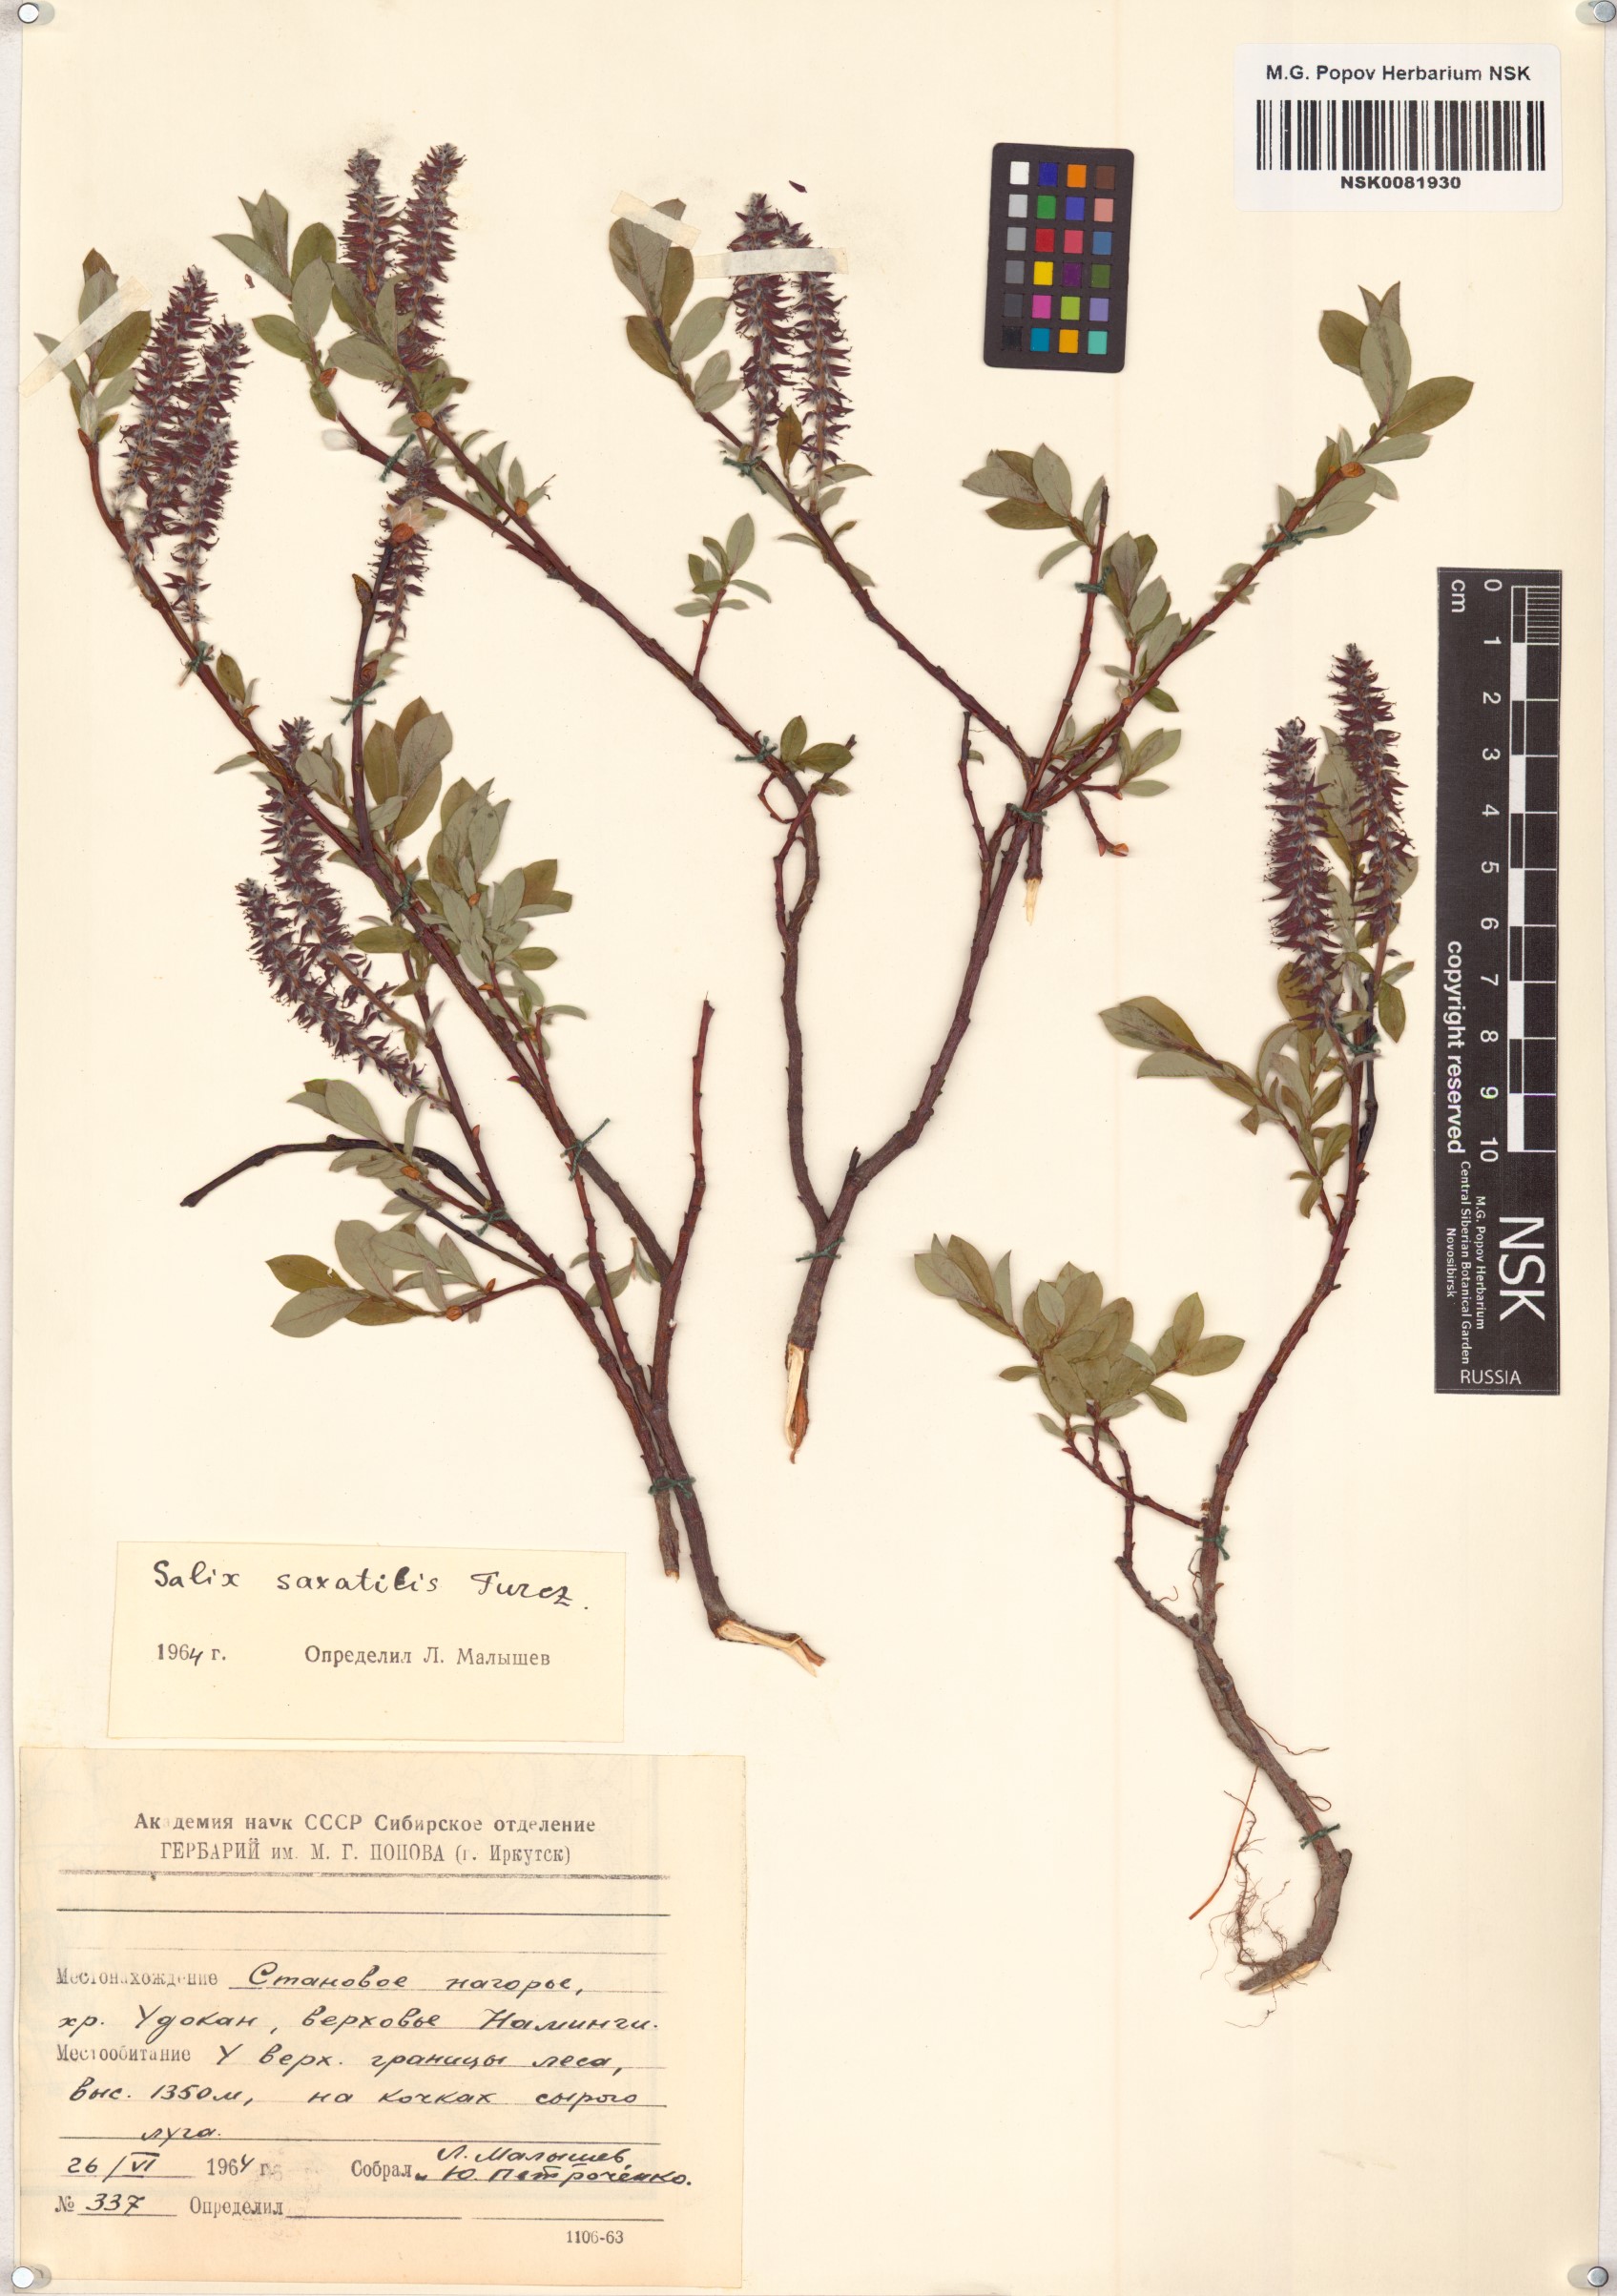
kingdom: Plantae
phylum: Tracheophyta
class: Magnoliopsida
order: Malpighiales
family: Salicaceae
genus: Salix
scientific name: Salix saxatilis
